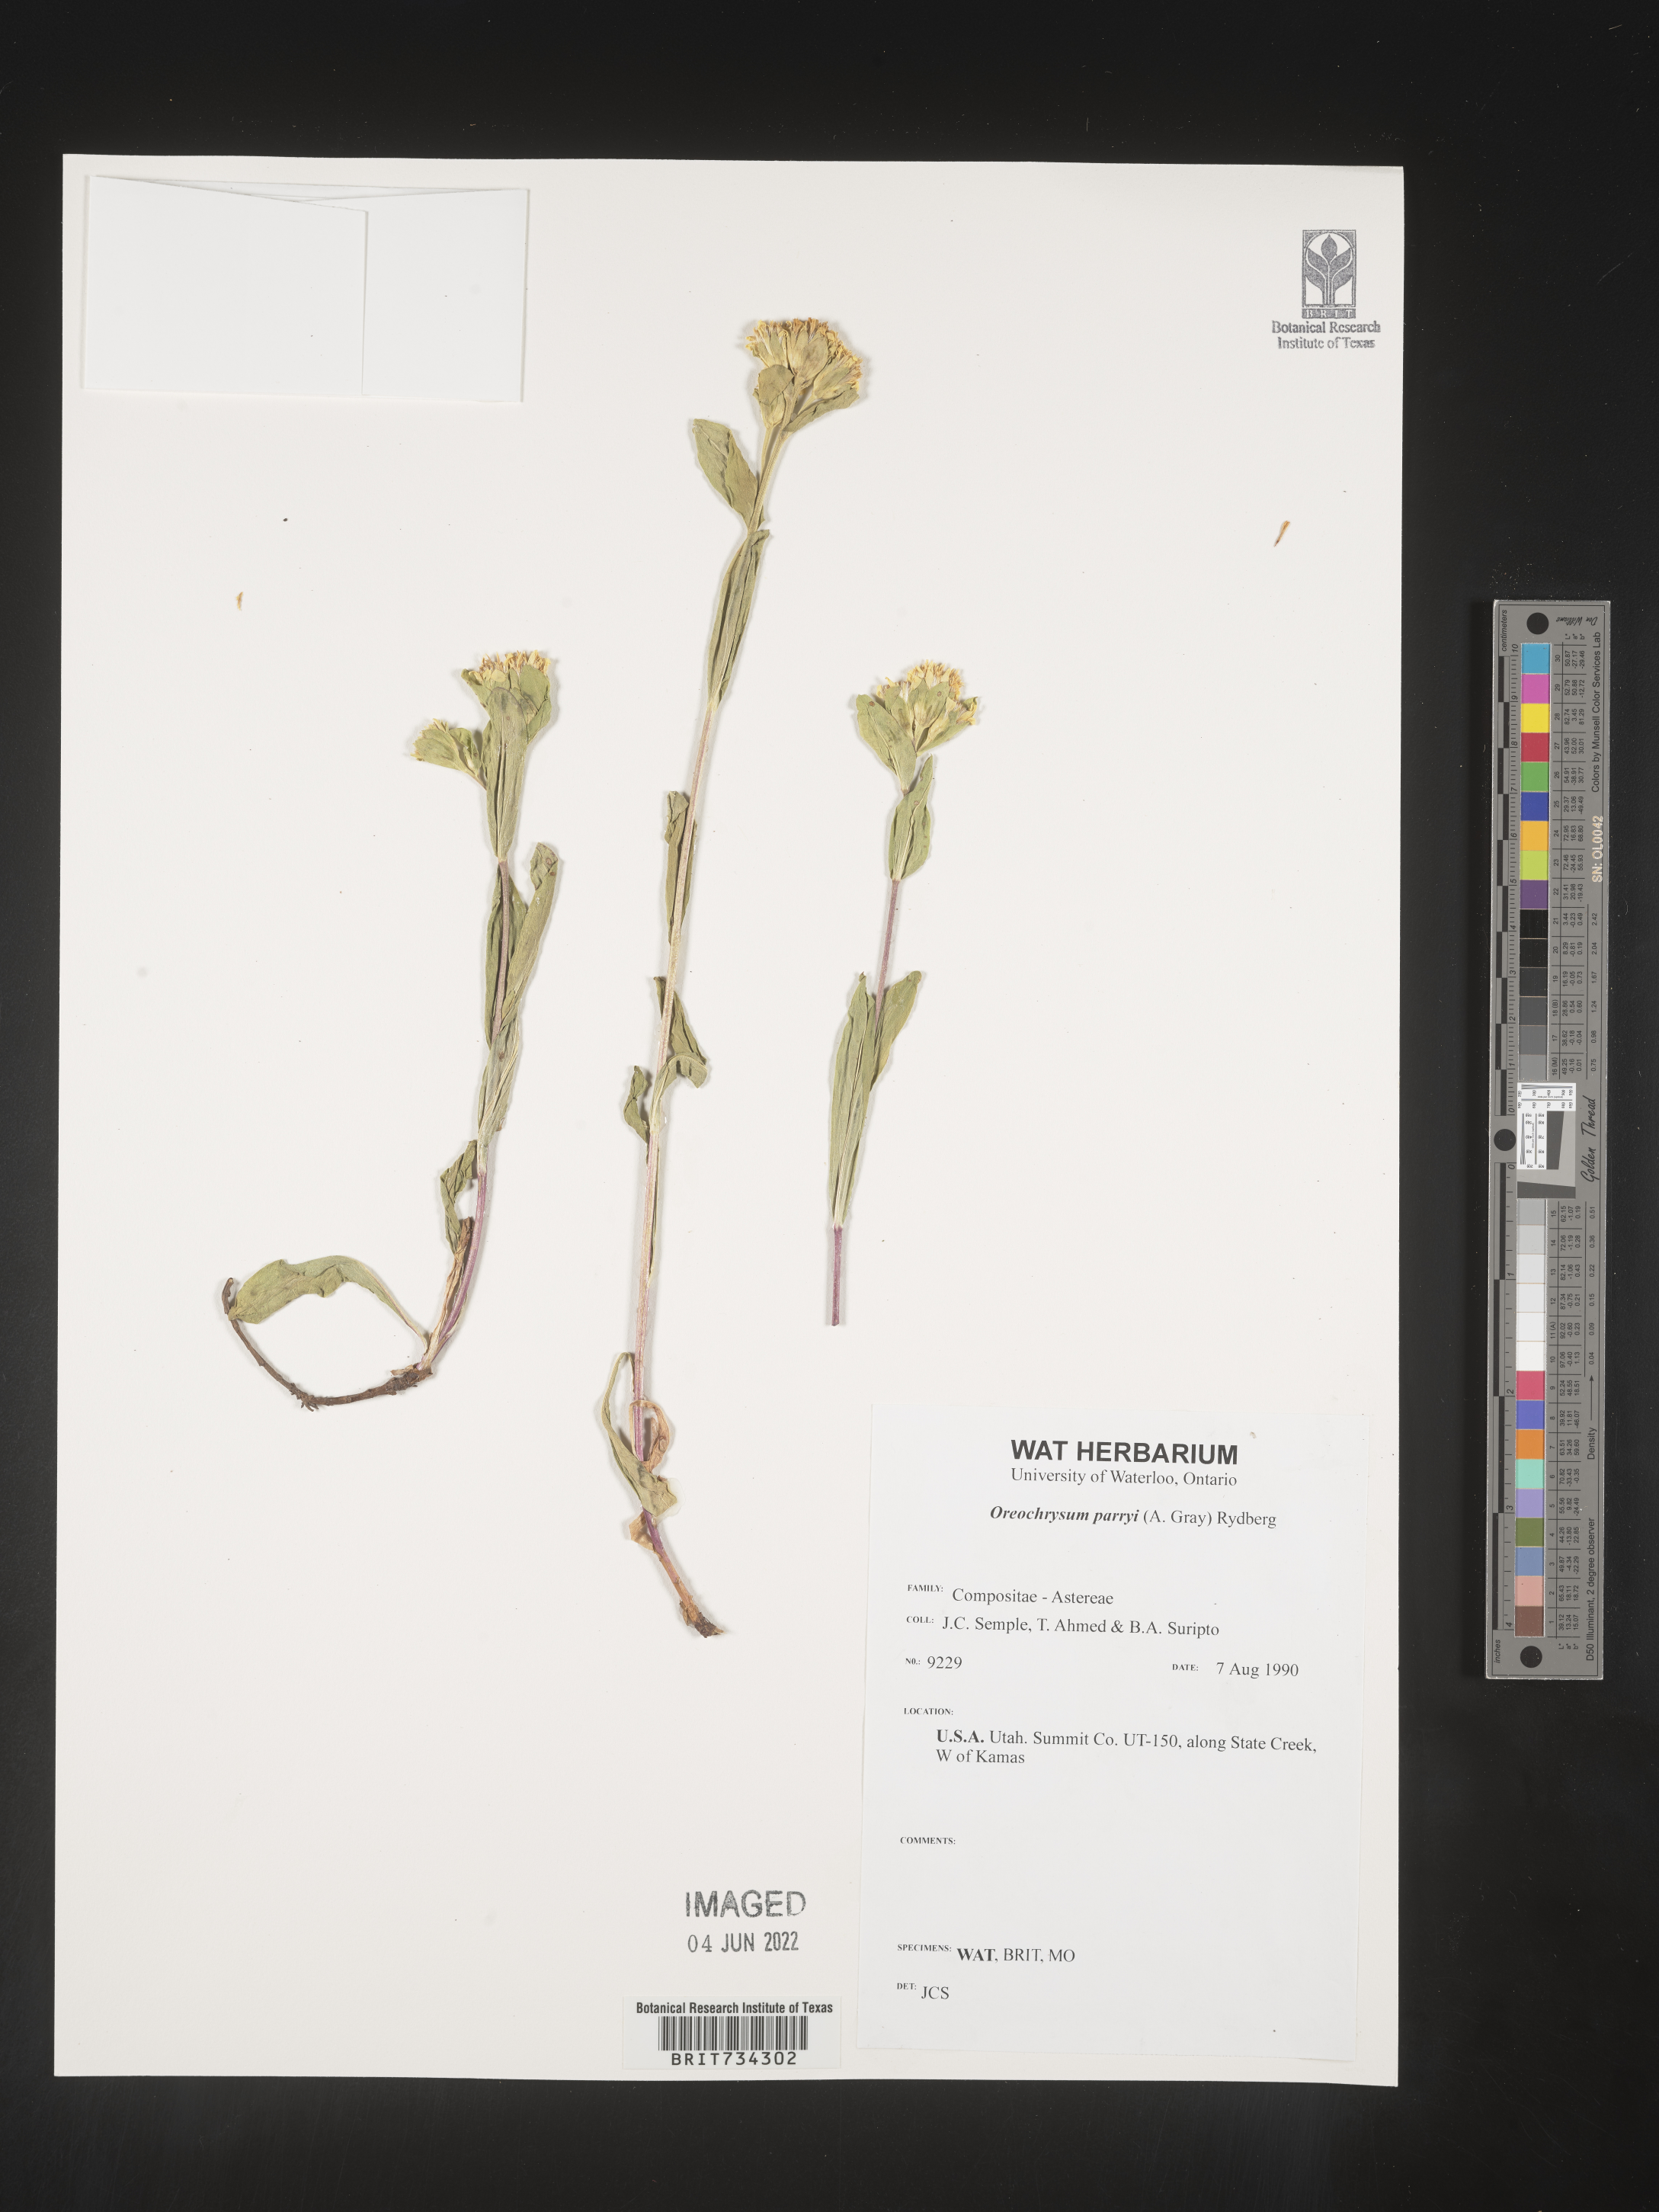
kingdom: Plantae
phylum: Tracheophyta
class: Magnoliopsida
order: Asterales
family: Asteraceae
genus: Oreochrysum
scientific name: Oreochrysum parryi
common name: Parry's goldenweed
